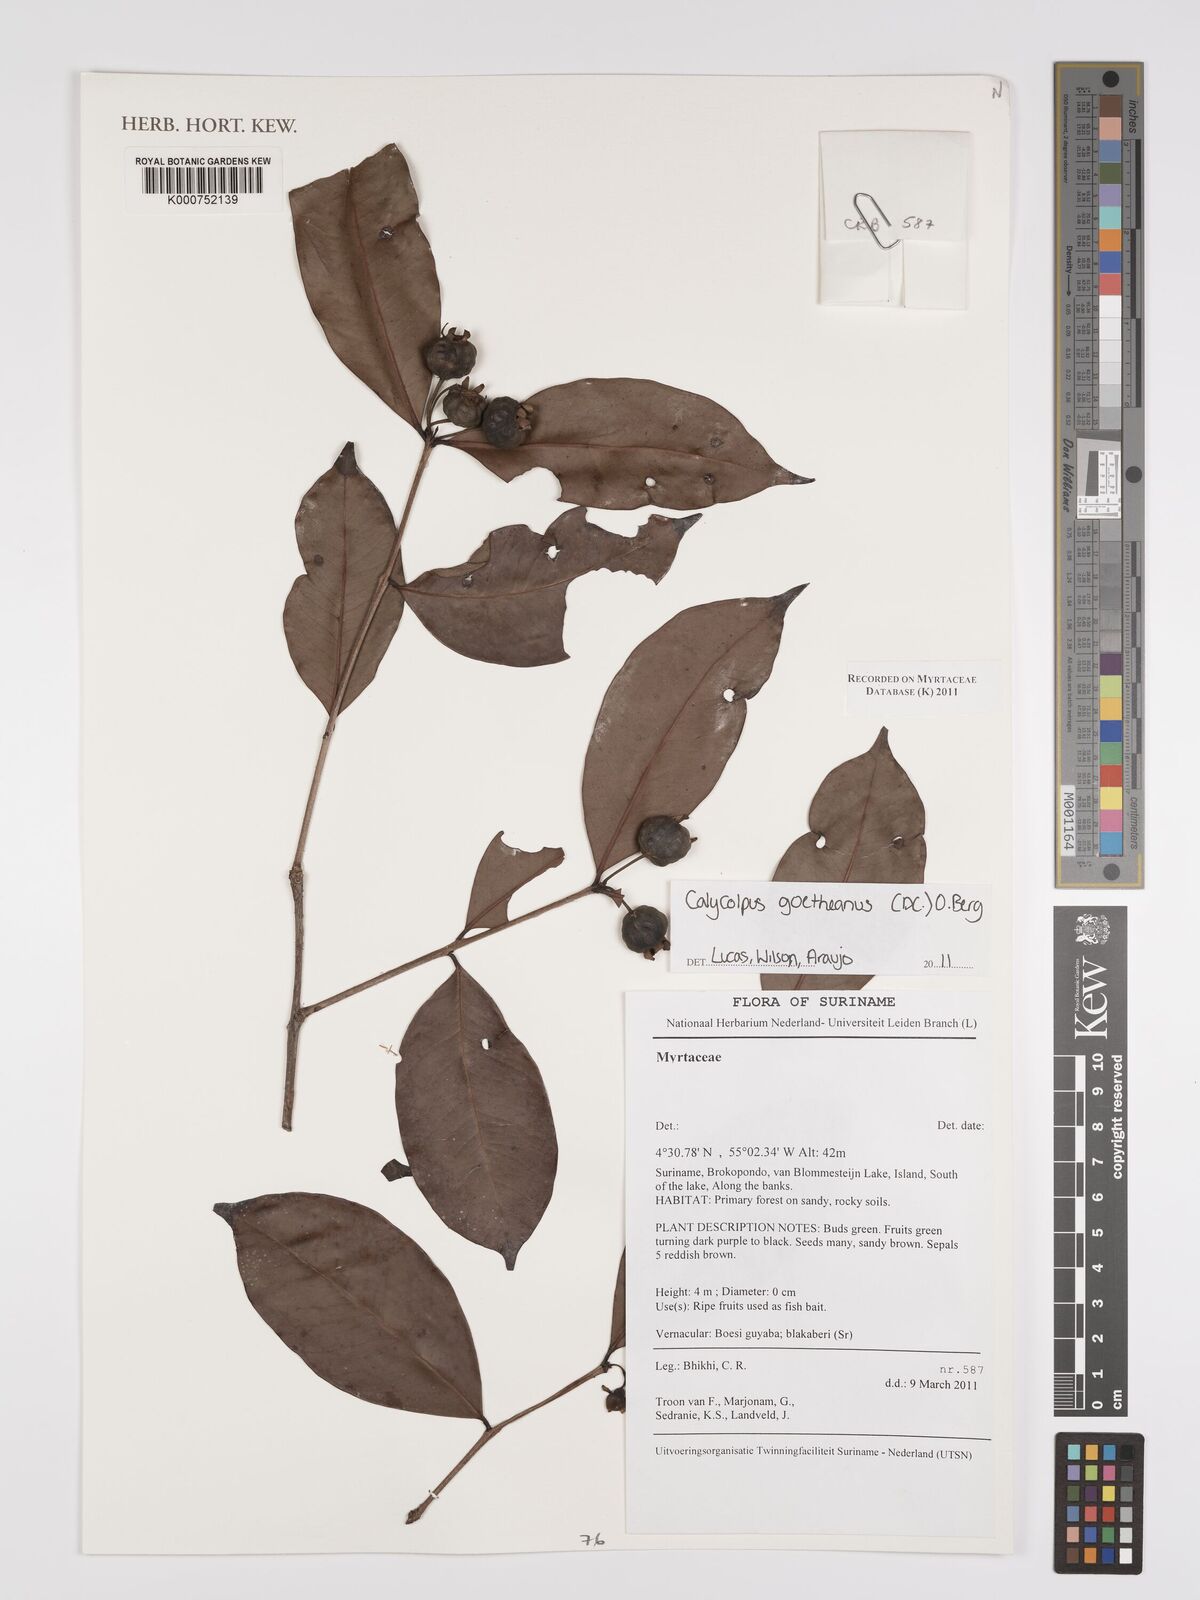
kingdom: Plantae
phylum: Tracheophyta
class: Magnoliopsida
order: Myrtales
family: Myrtaceae
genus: Calycolpus
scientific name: Calycolpus goetheanus
